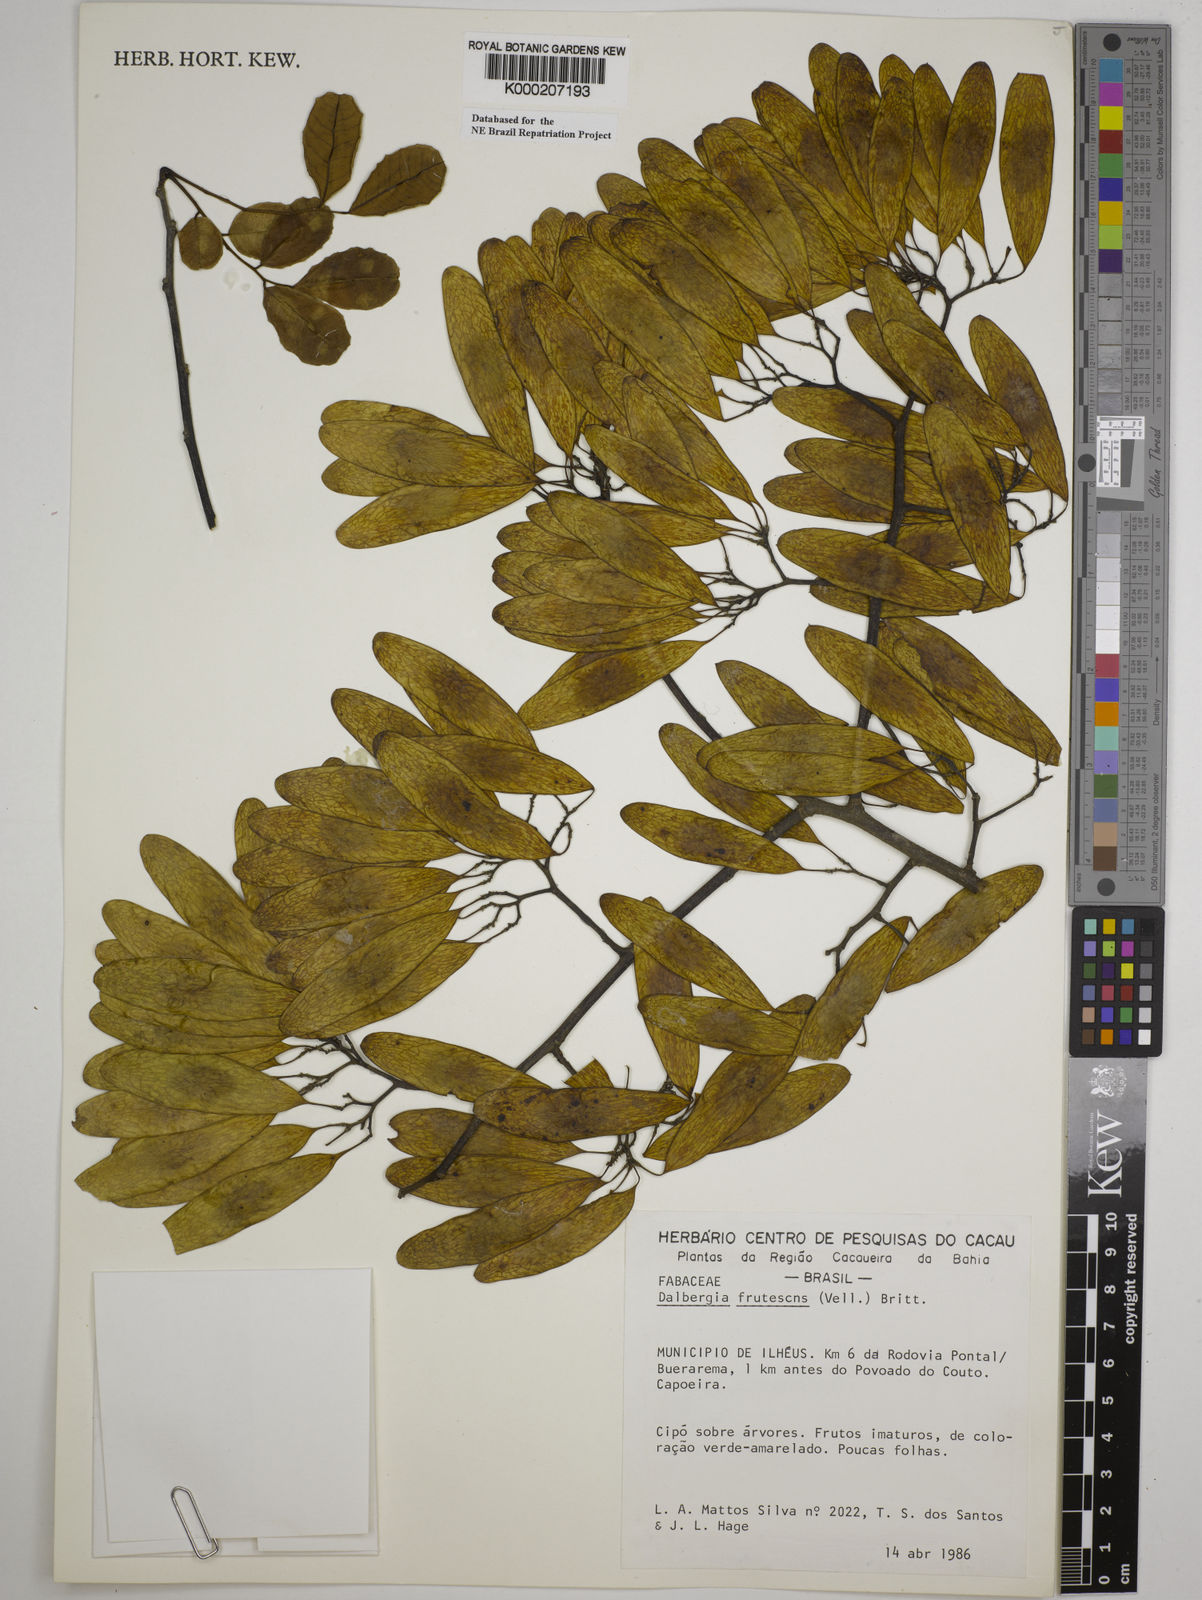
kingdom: Plantae
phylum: Tracheophyta
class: Magnoliopsida
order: Fabales
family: Fabaceae
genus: Dalbergia
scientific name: Dalbergia frutescens
